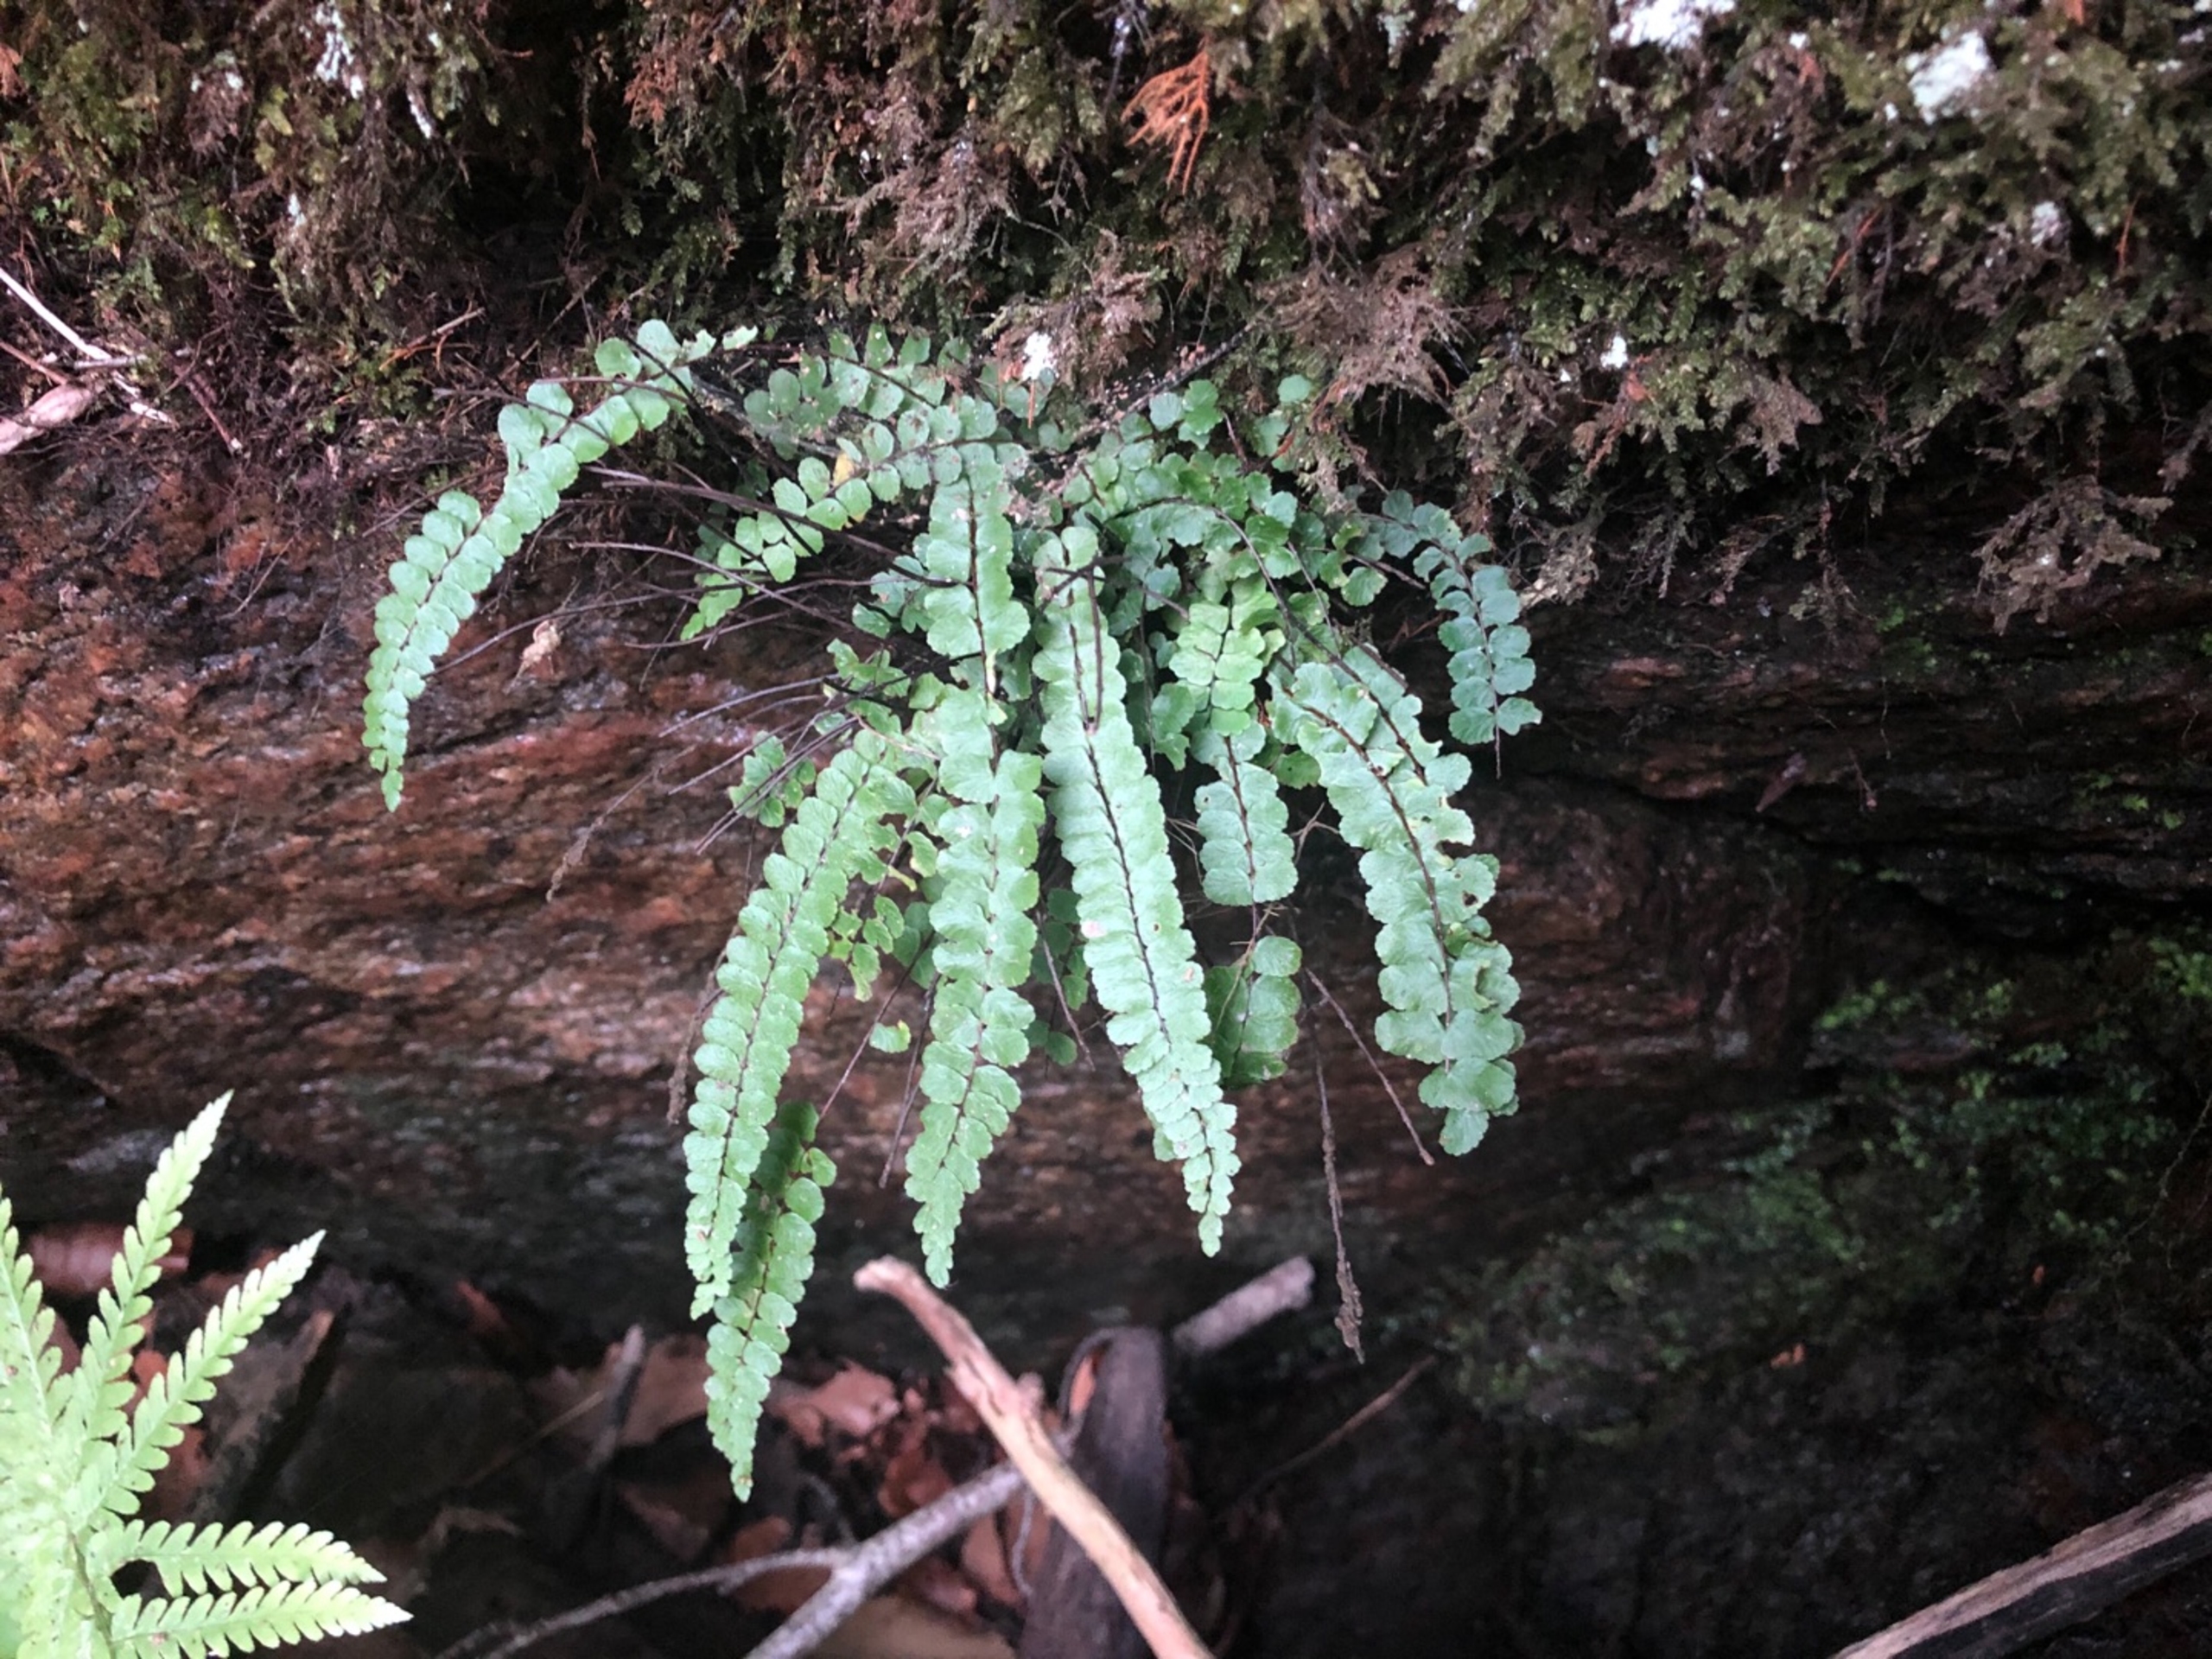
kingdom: Plantae
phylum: Tracheophyta
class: Polypodiopsida
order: Polypodiales
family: Aspleniaceae
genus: Asplenium
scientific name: Asplenium trichomanes
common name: Rundfinnet radeløv
